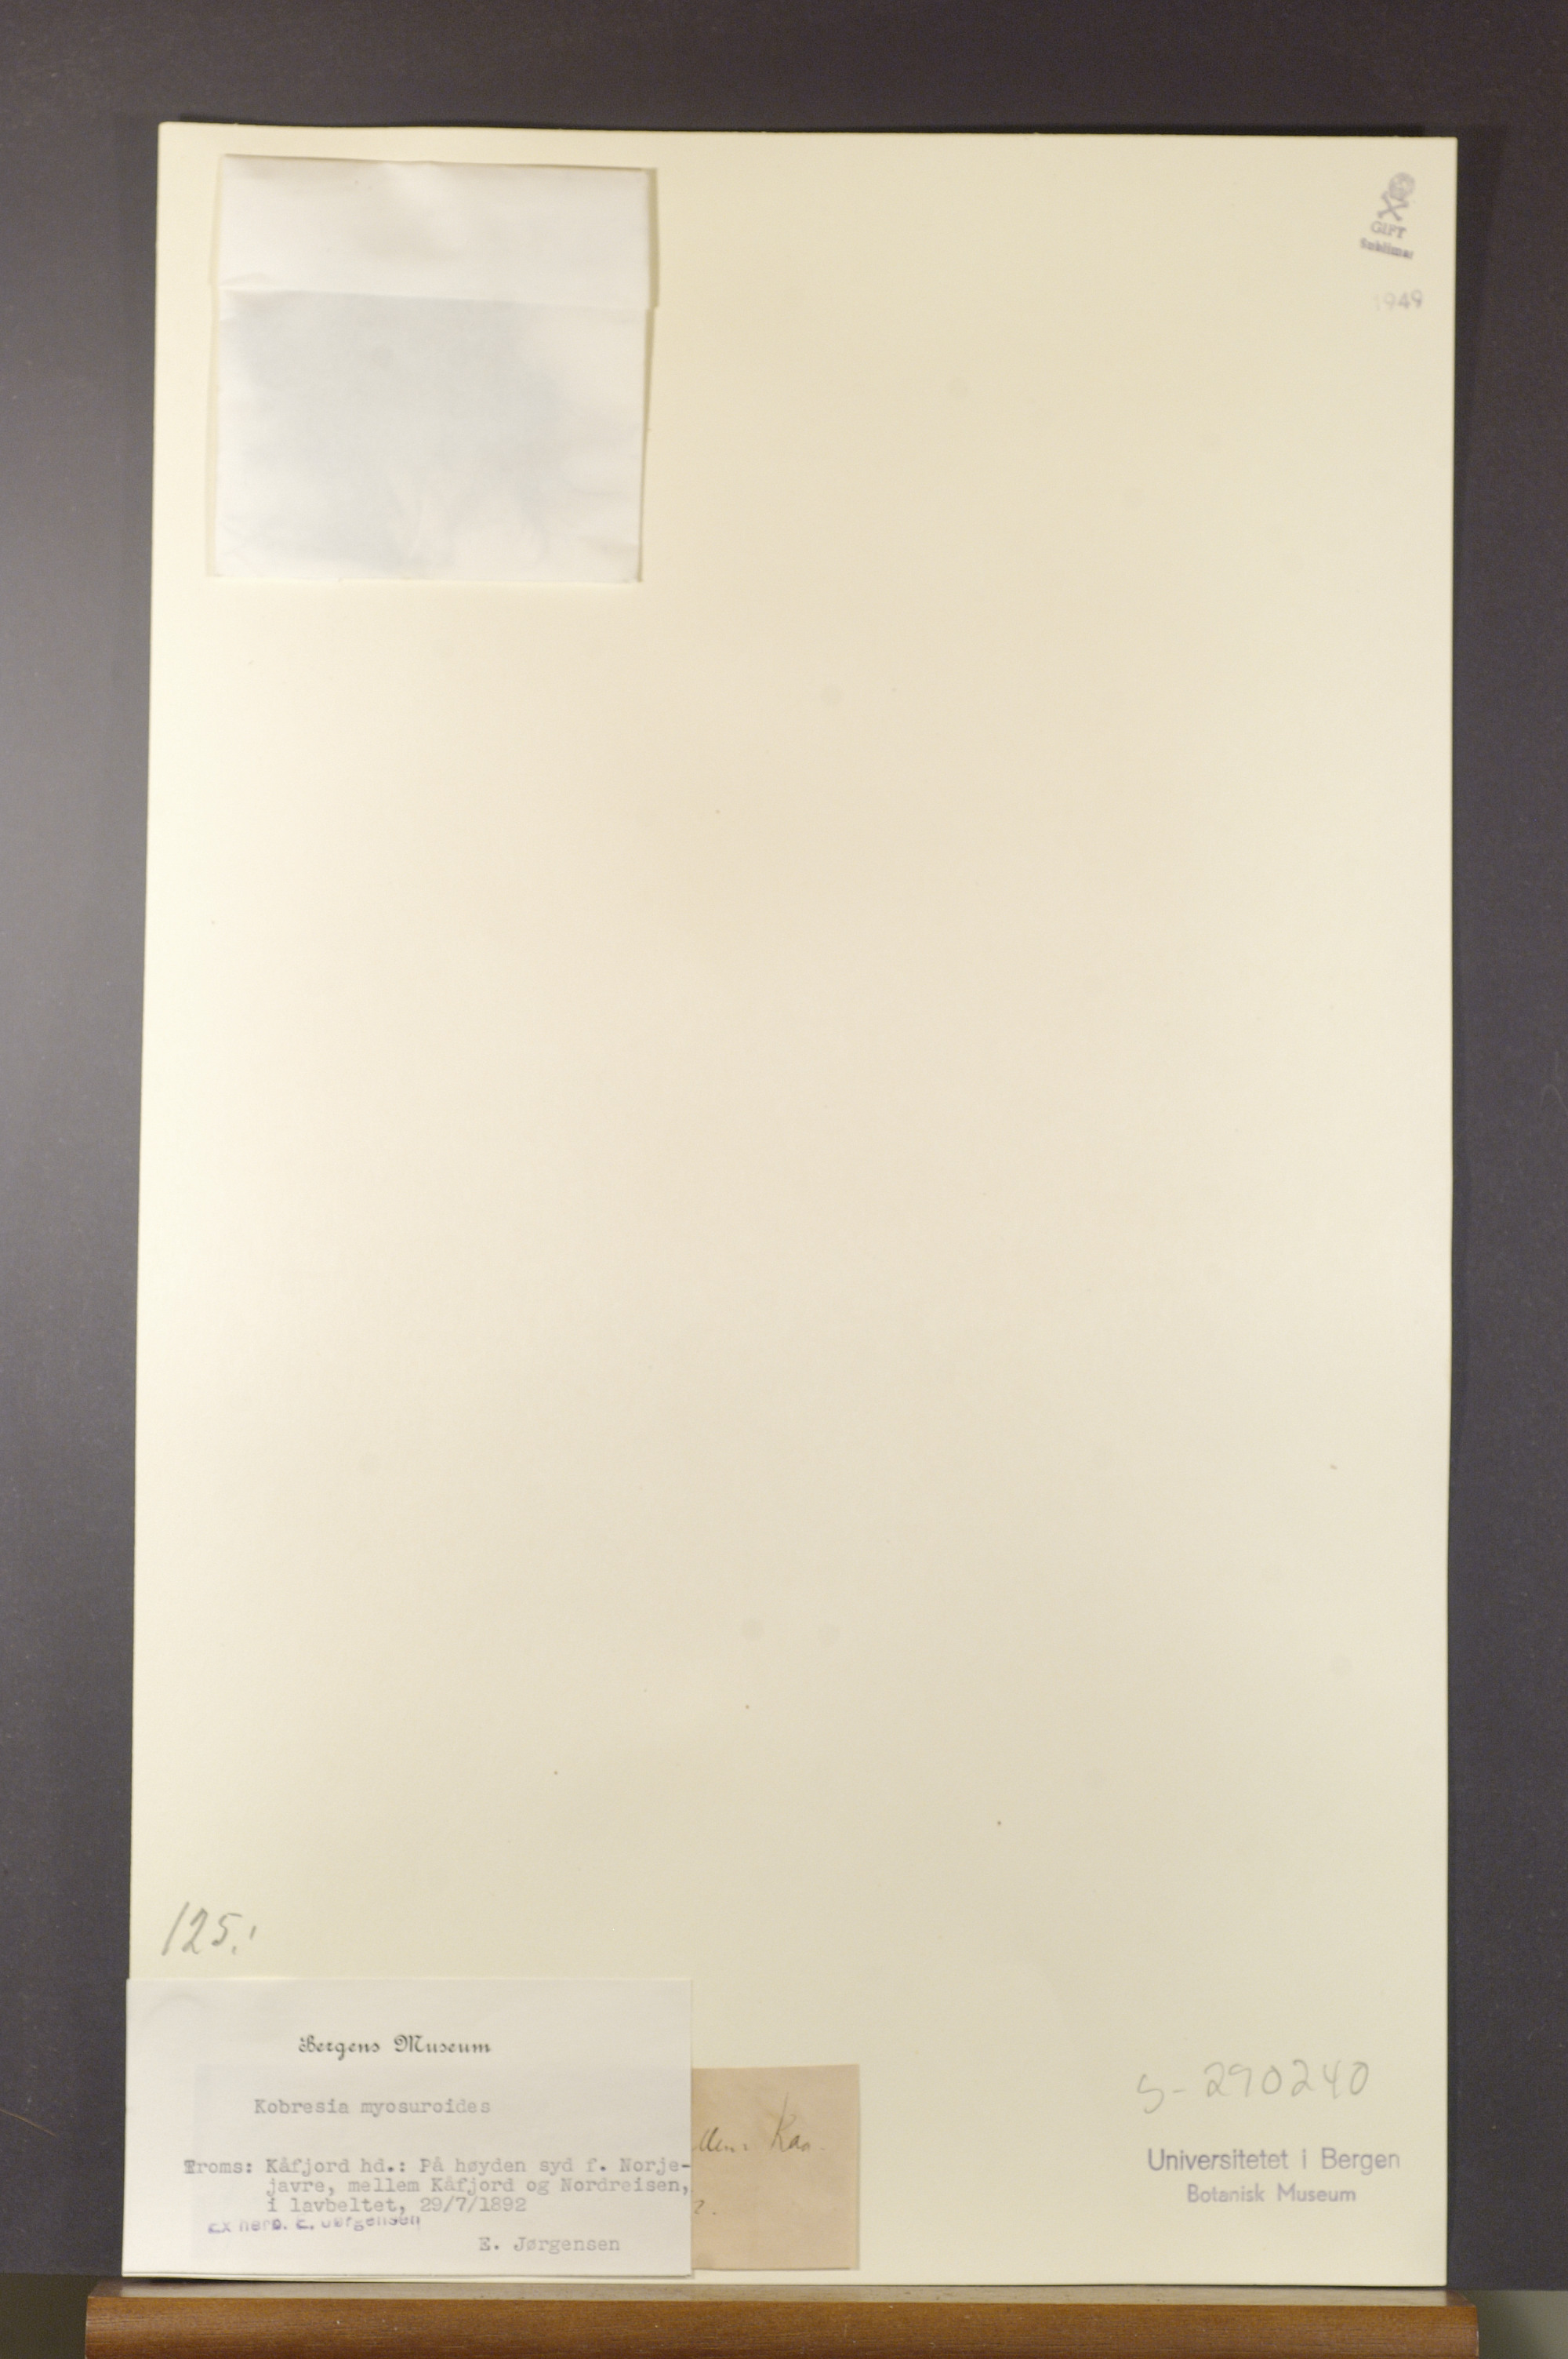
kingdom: Plantae
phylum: Tracheophyta
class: Liliopsida
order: Poales
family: Cyperaceae
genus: Carex
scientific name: Carex myosuroides
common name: Bellard's bog sedge
